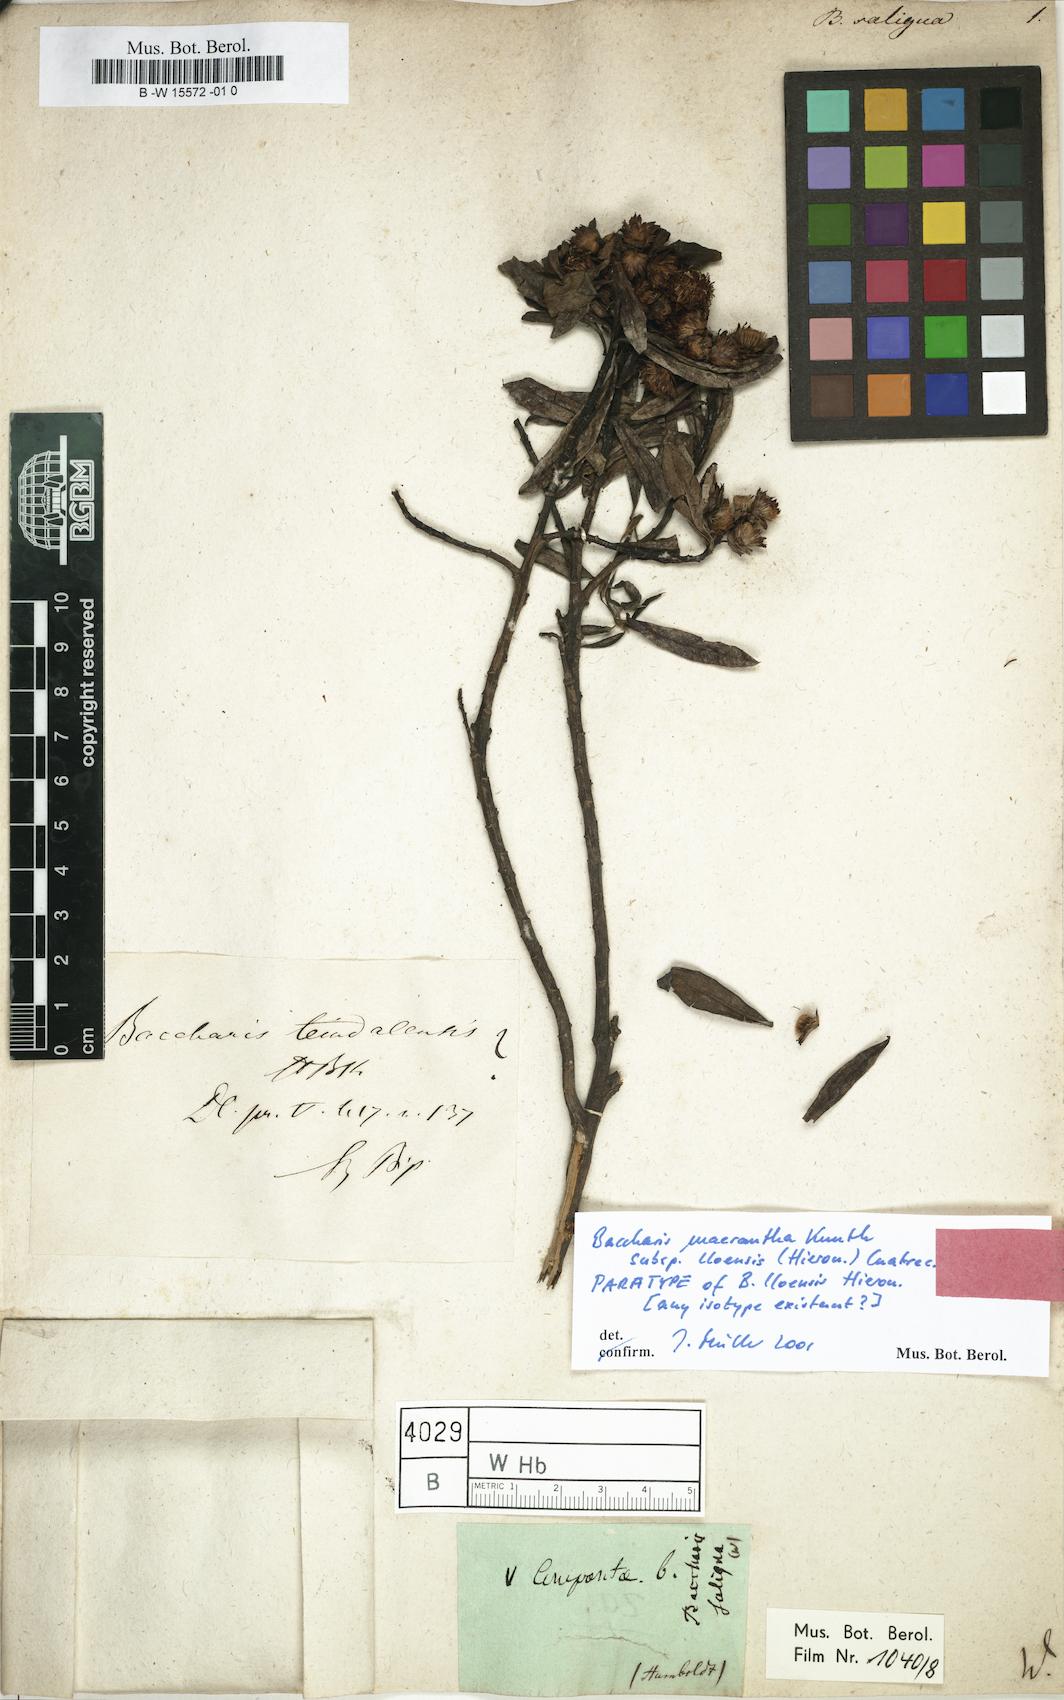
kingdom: Plantae
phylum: Tracheophyta
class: Magnoliopsida
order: Asterales
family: Asteraceae
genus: Baccharis
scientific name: Baccharis ligustrina
